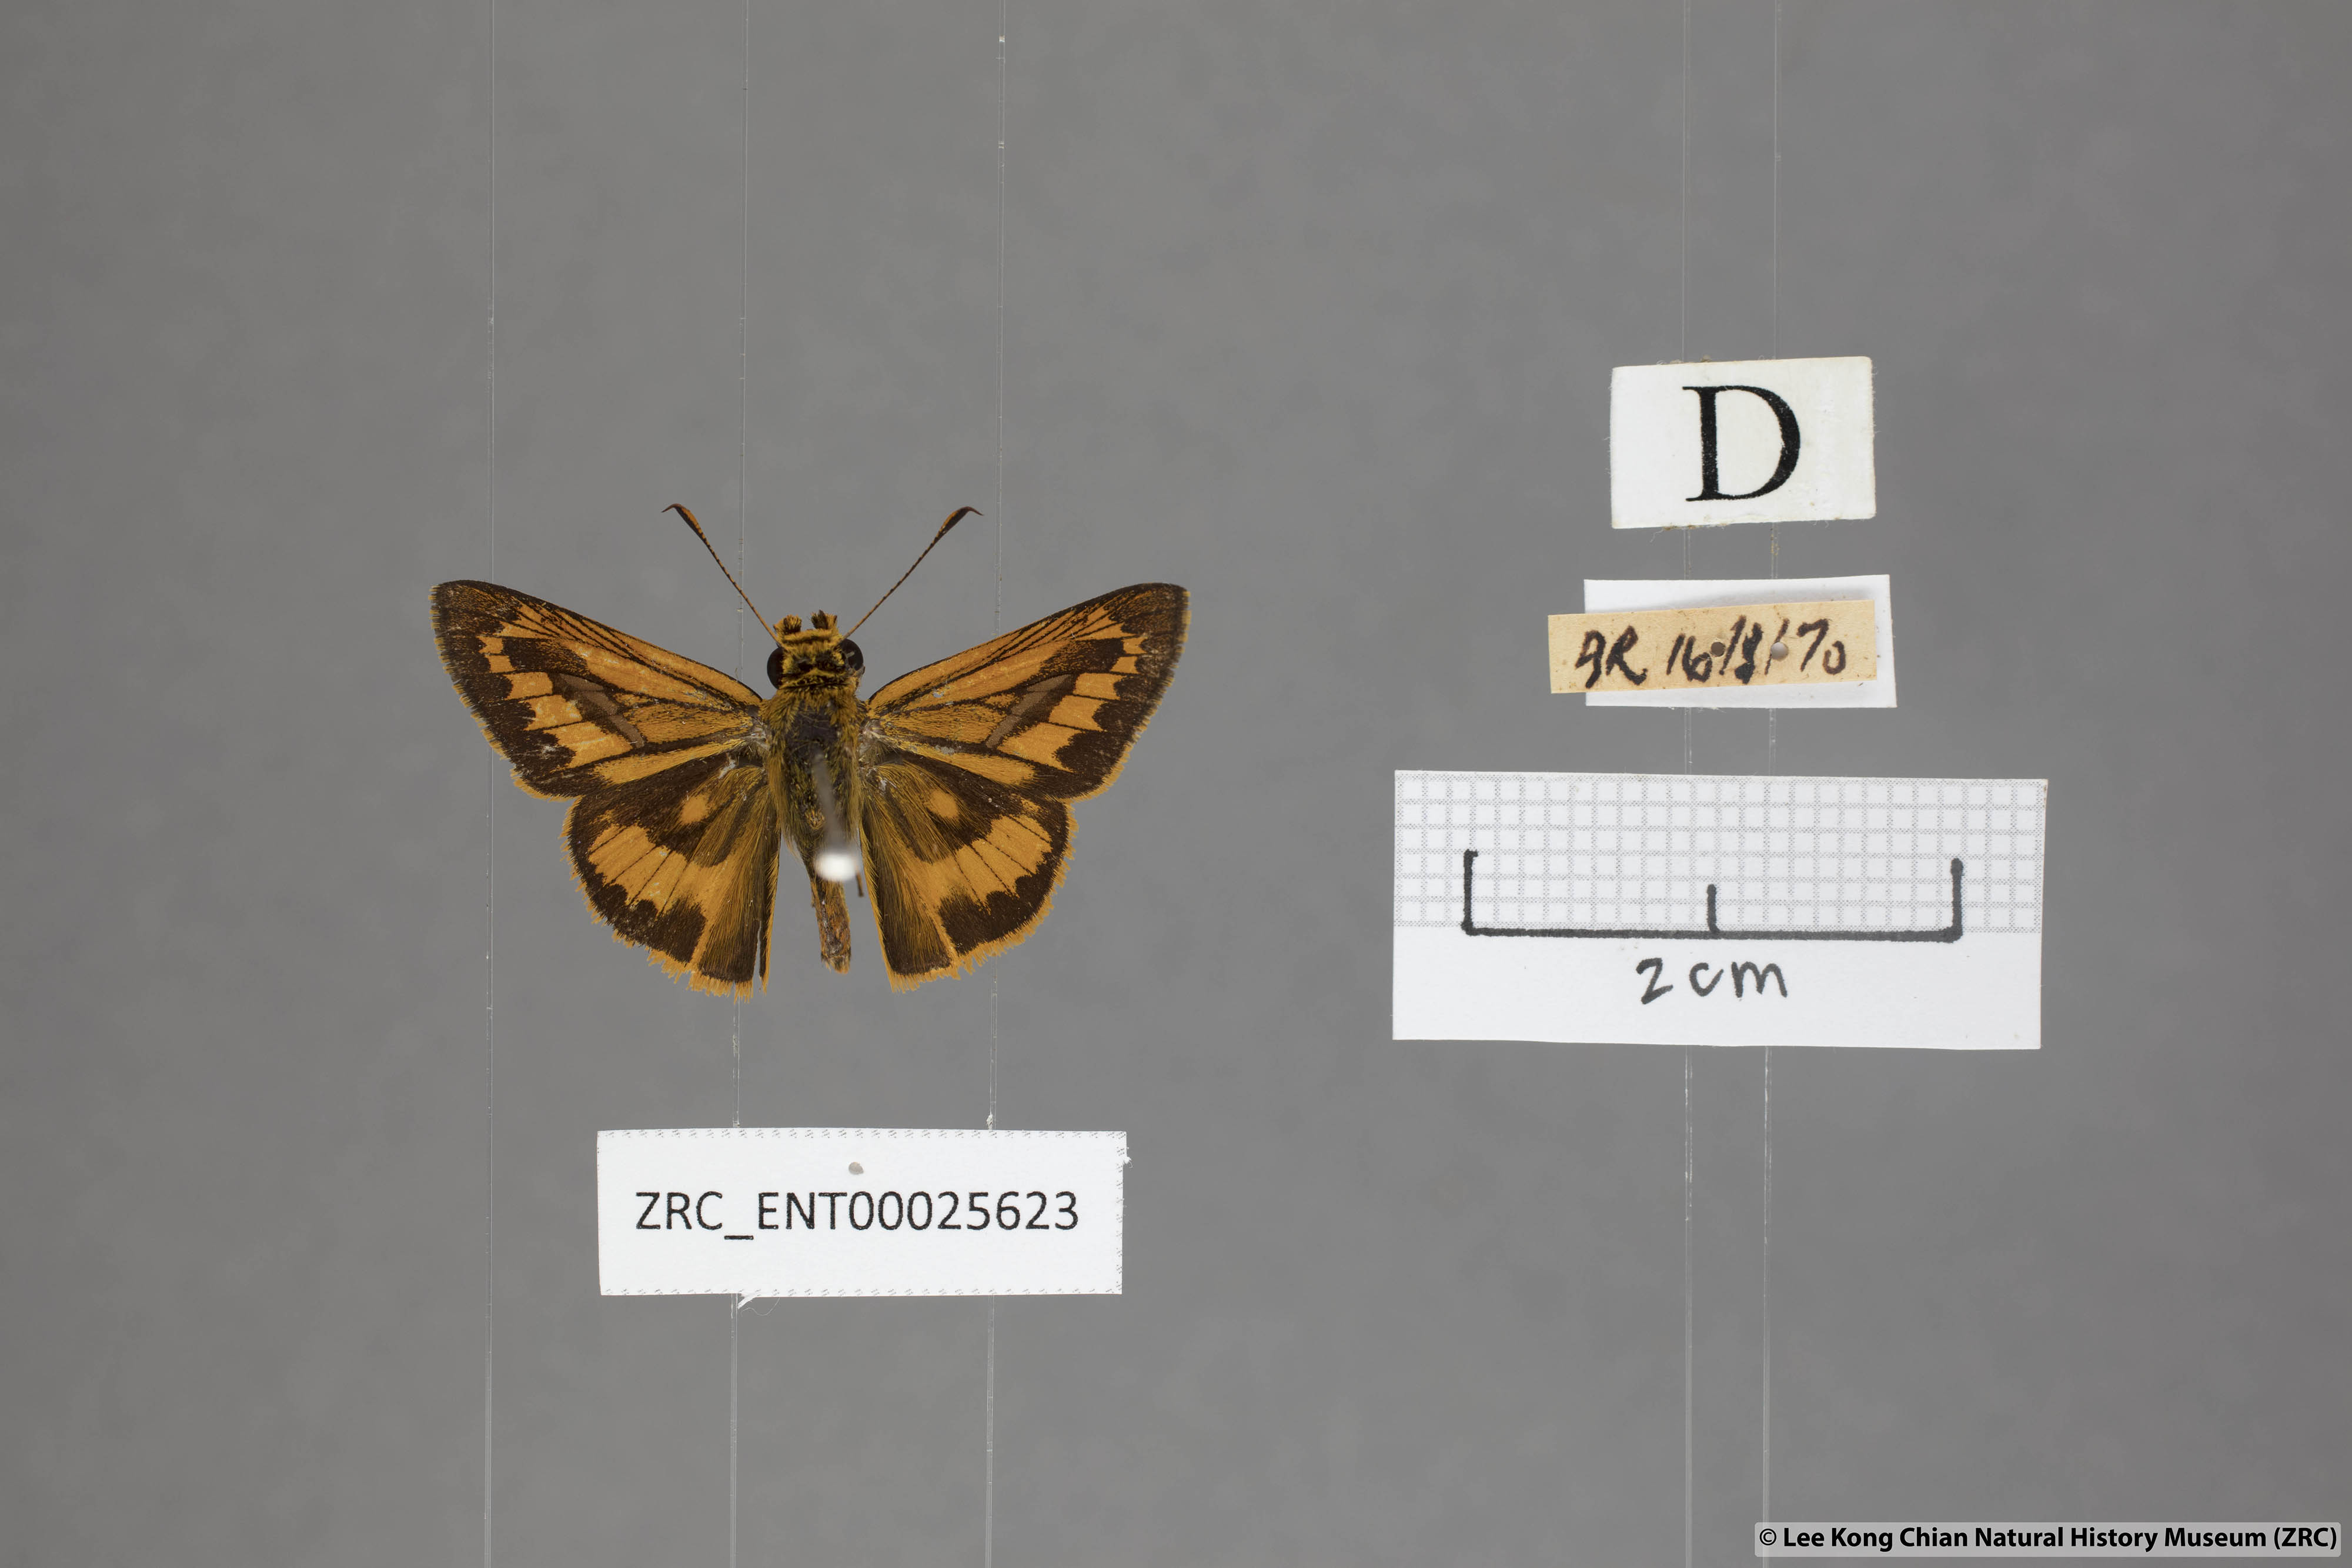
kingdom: Animalia
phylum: Arthropoda
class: Insecta
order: Lepidoptera
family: Hesperiidae
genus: Telicota
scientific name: Telicota augias
